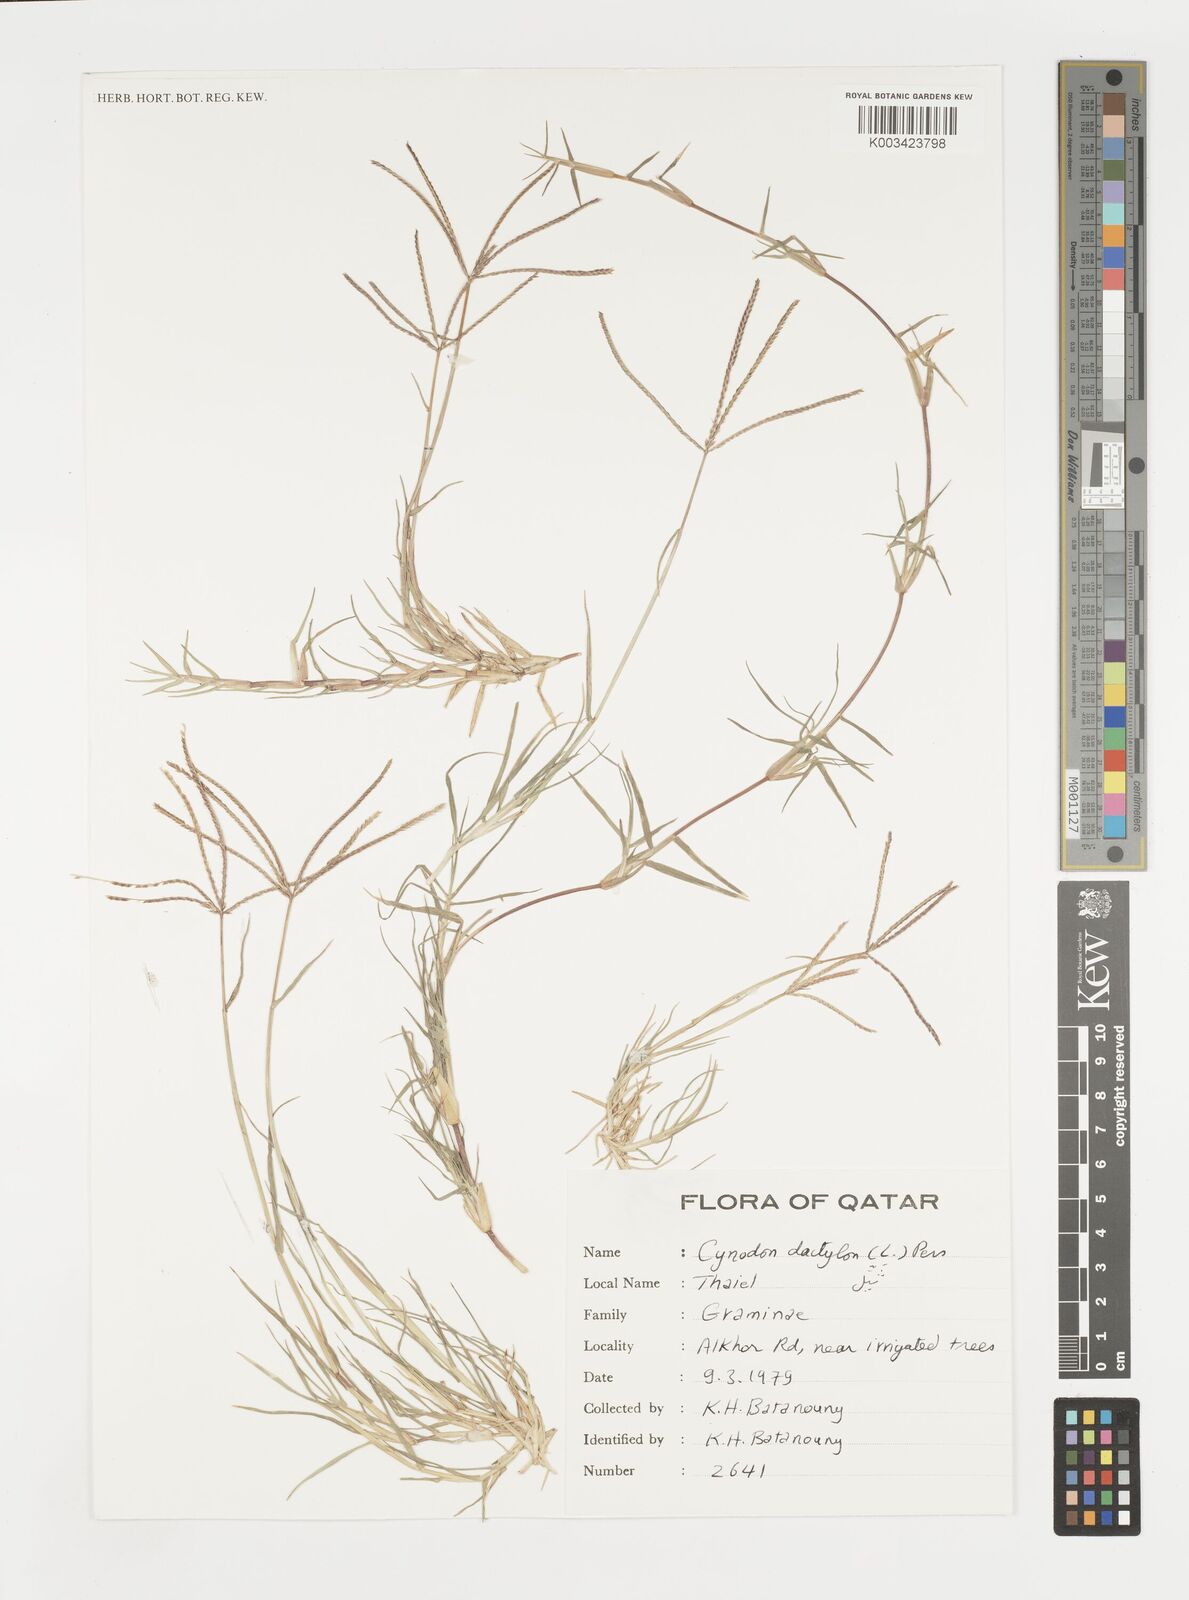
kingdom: Plantae
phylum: Tracheophyta
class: Liliopsida
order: Poales
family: Poaceae
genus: Cynodon
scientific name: Cynodon dactylon
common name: Bermuda grass
